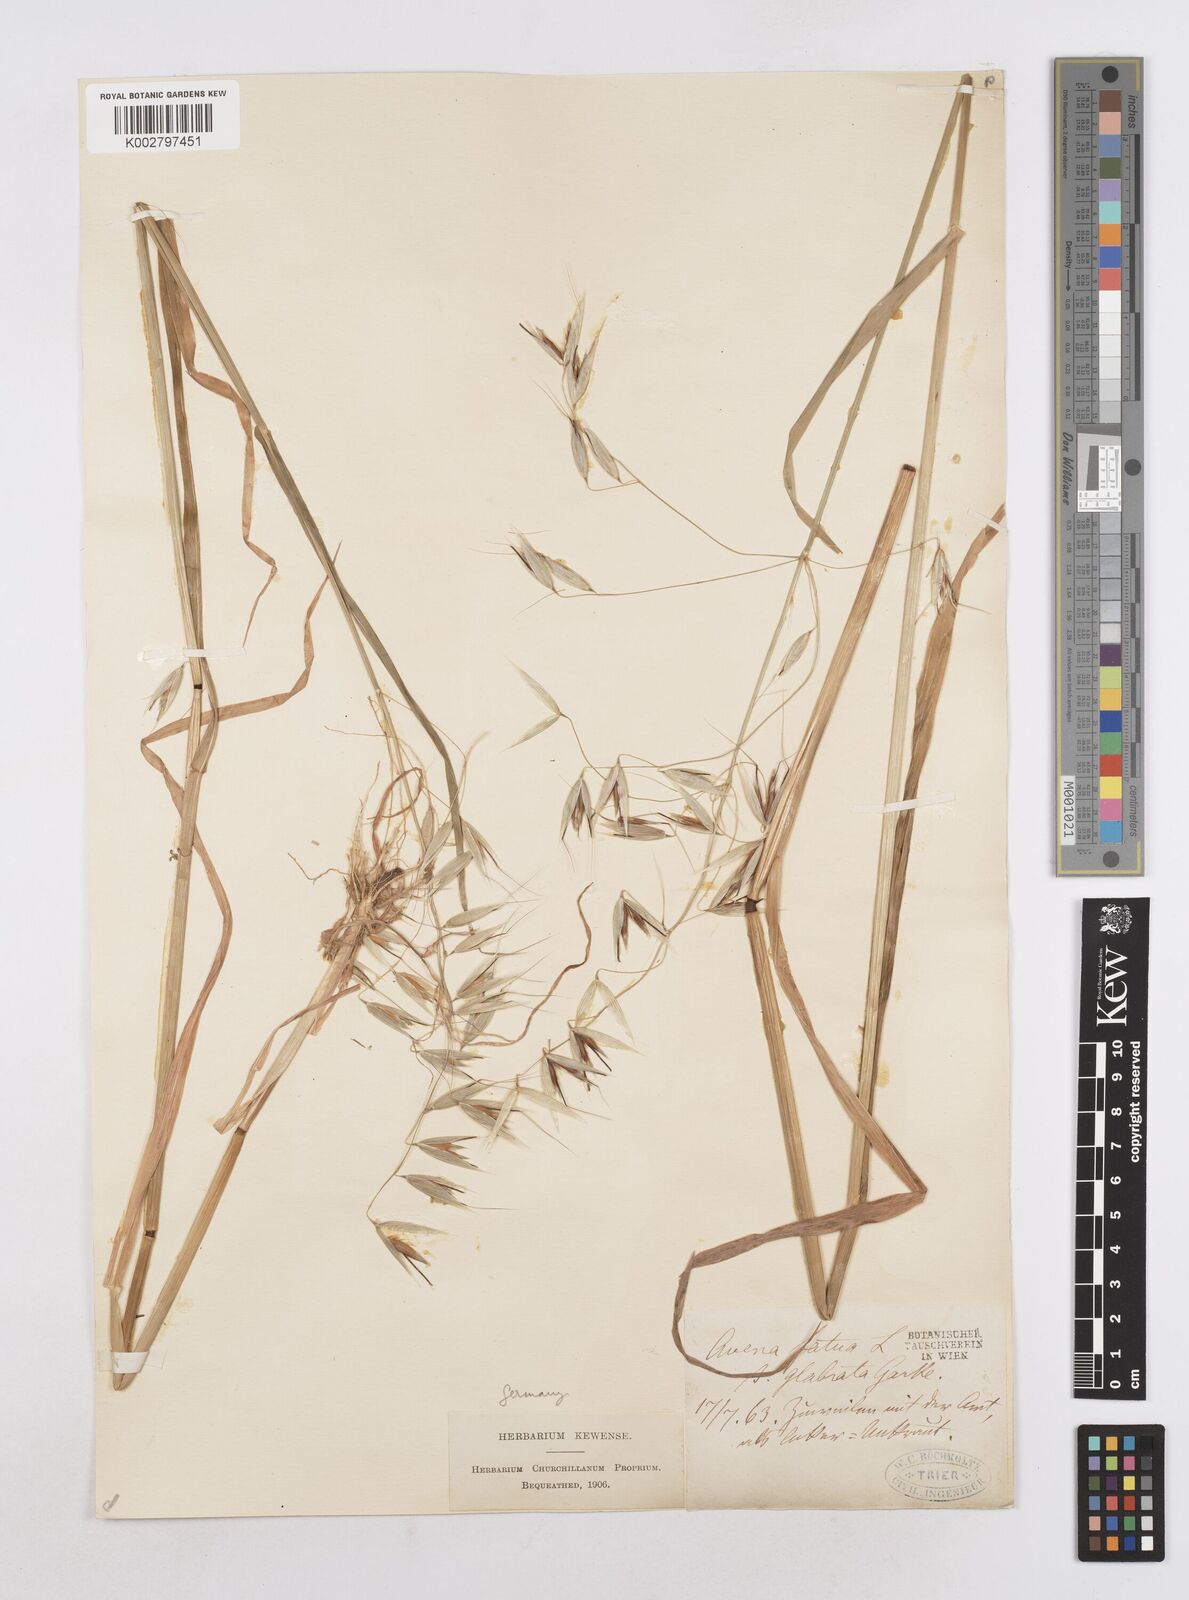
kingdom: Plantae
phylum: Tracheophyta
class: Liliopsida
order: Poales
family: Poaceae
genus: Avena
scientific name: Avena fatua
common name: Wild oat
